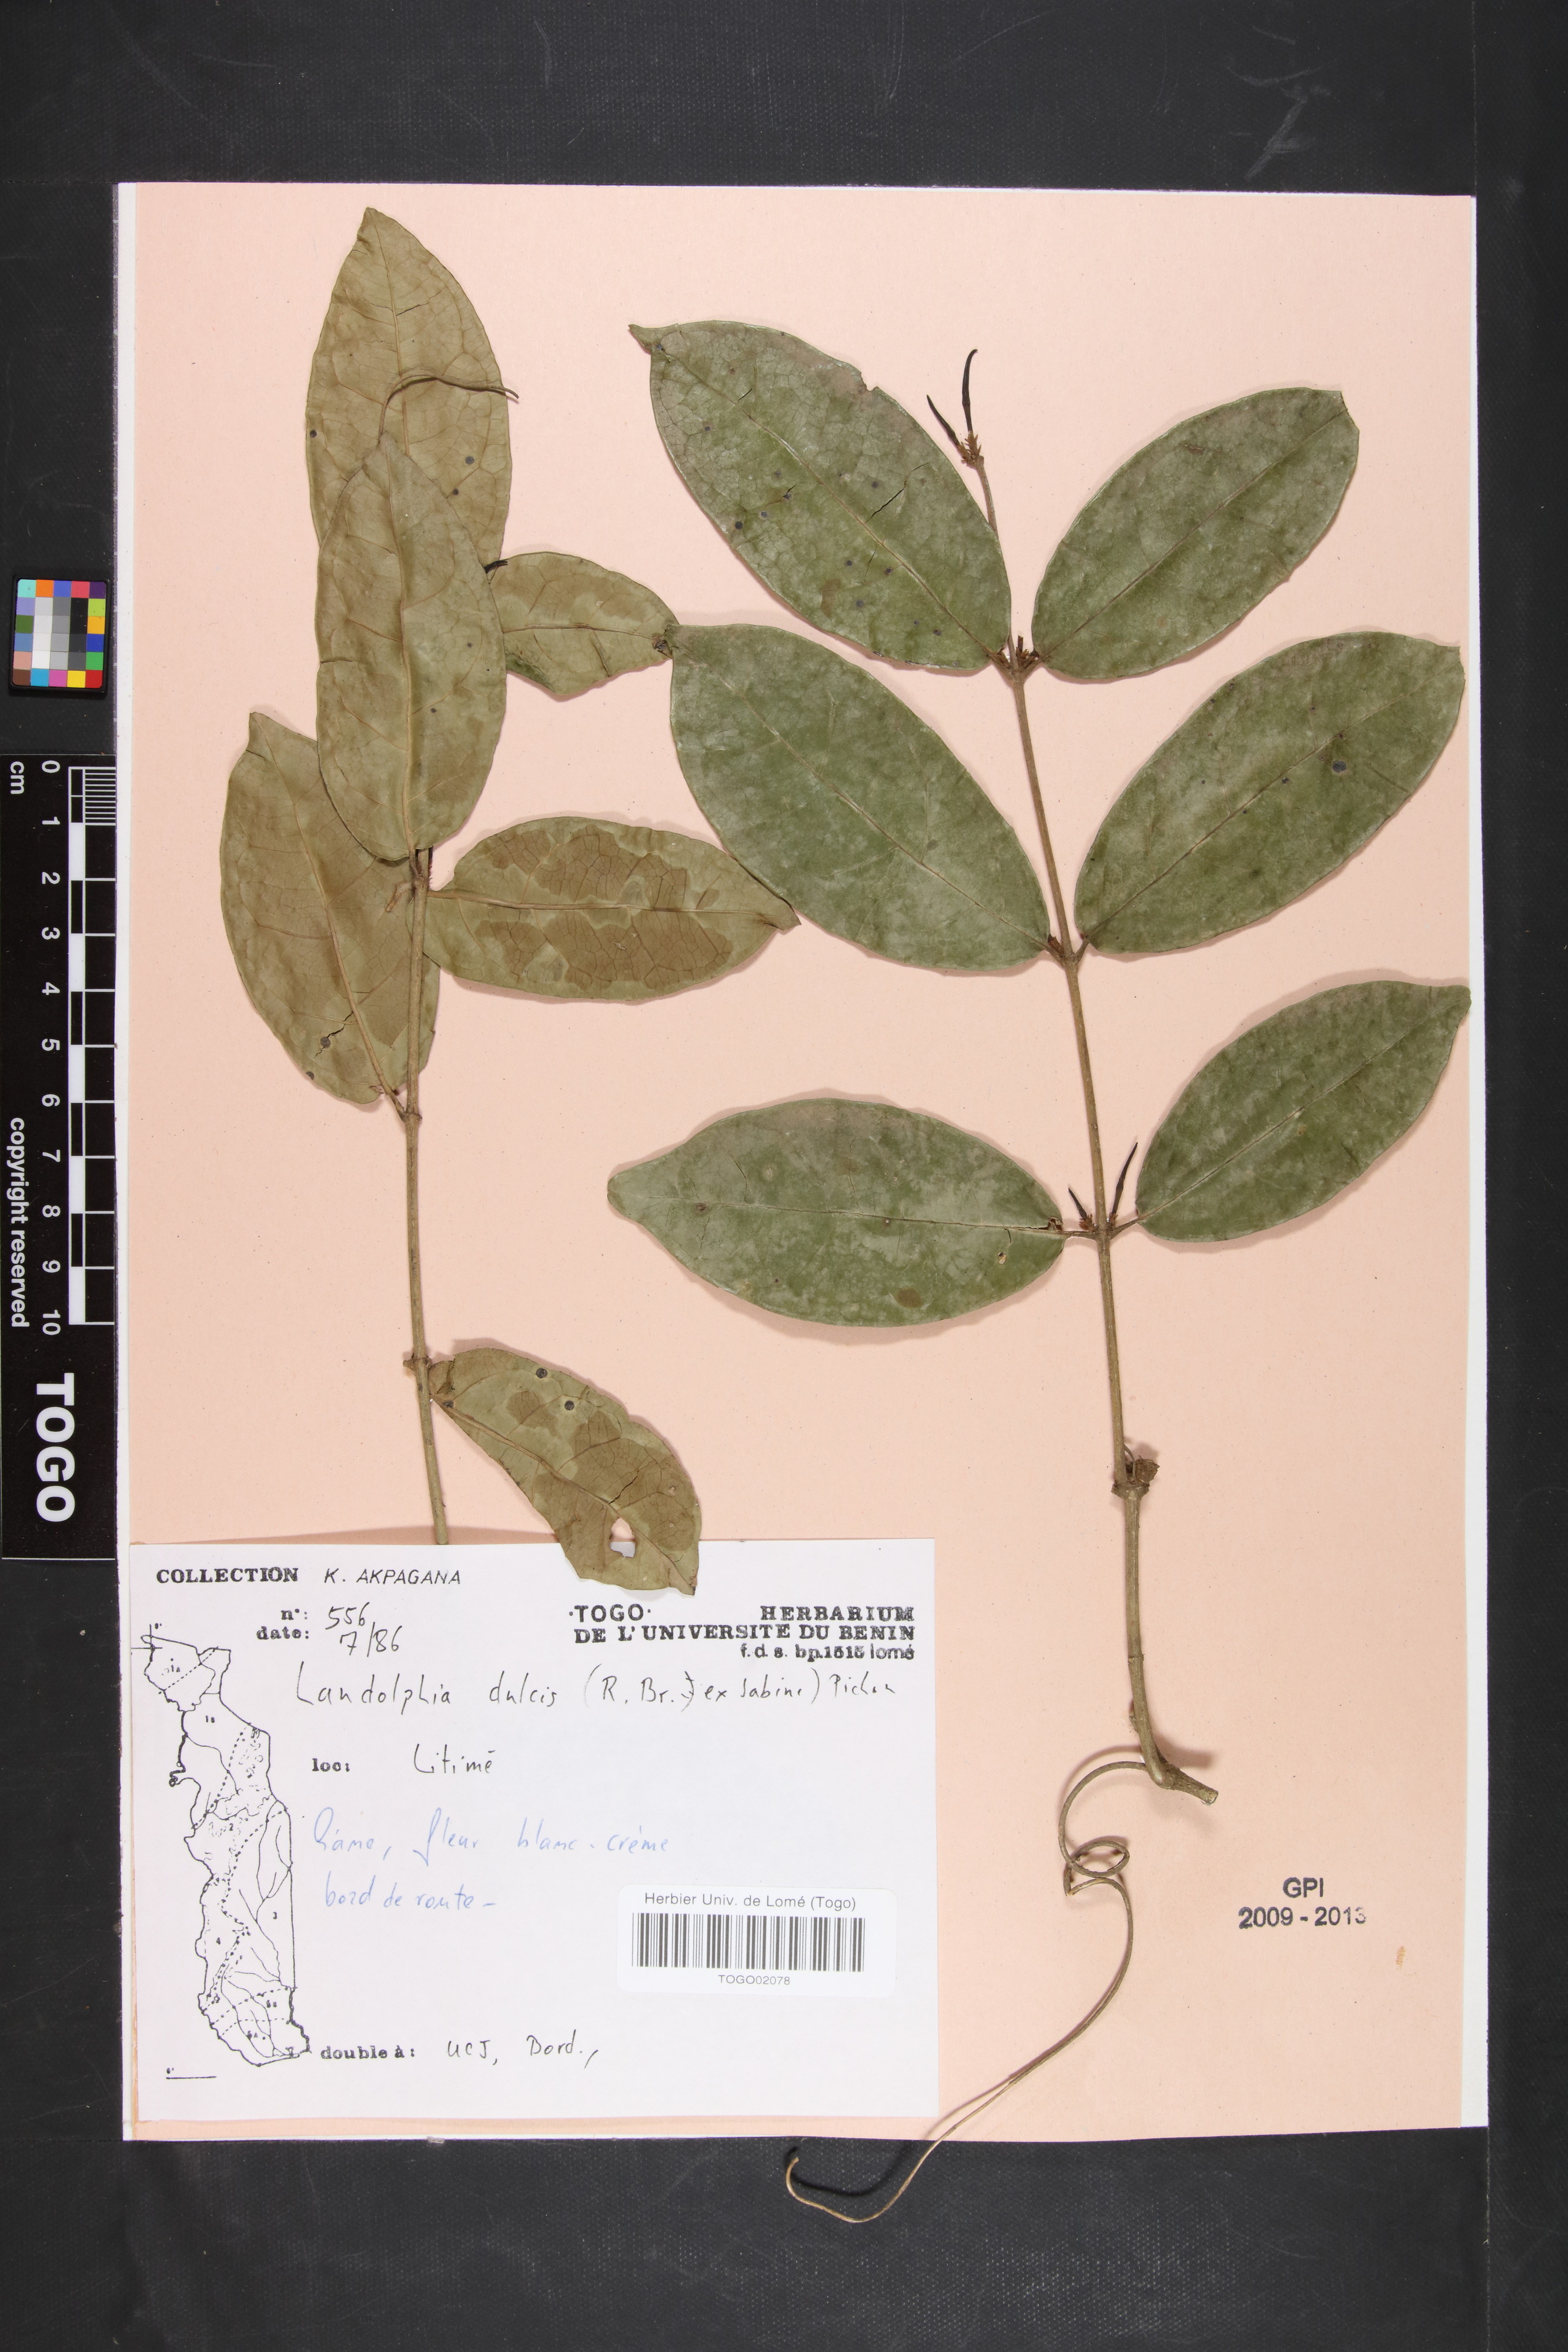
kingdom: Plantae
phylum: Tracheophyta
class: Magnoliopsida
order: Gentianales
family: Apocynaceae
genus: Landolphia
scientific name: Landolphia dulcis
